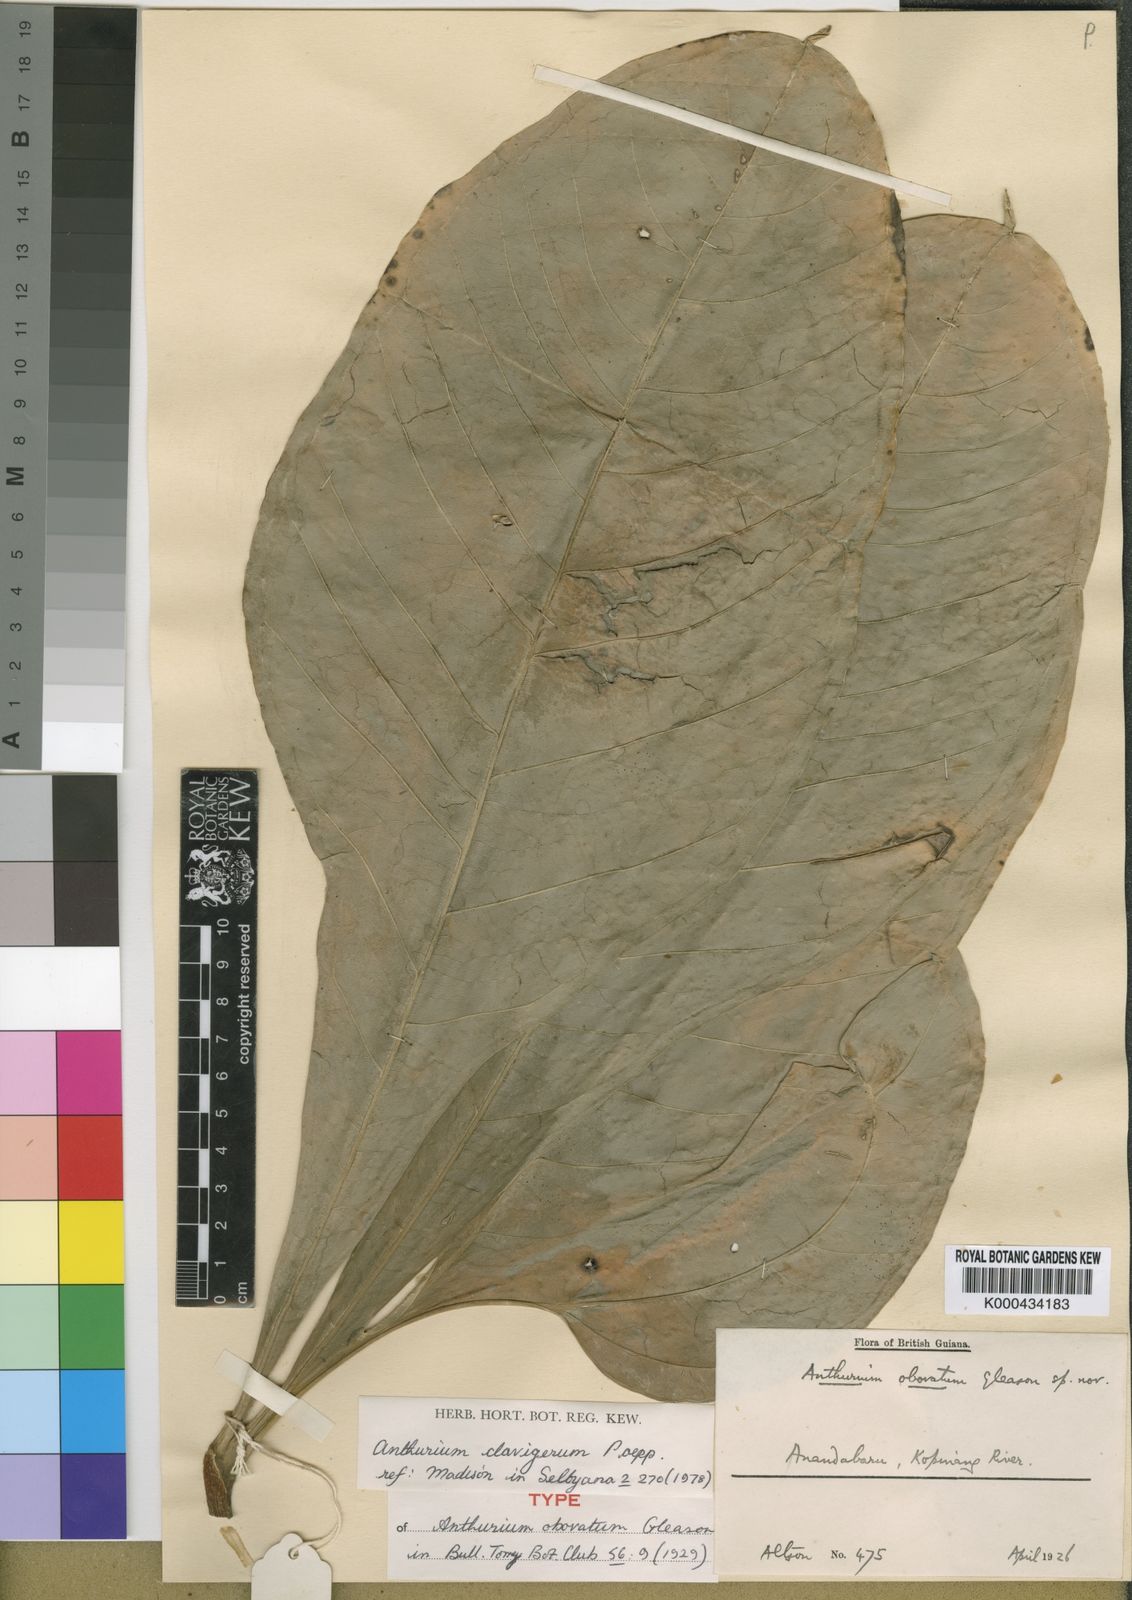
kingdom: Plantae
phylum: Tracheophyta
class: Liliopsida
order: Alismatales
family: Araceae
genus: Anthurium
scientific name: Anthurium sinuatum
